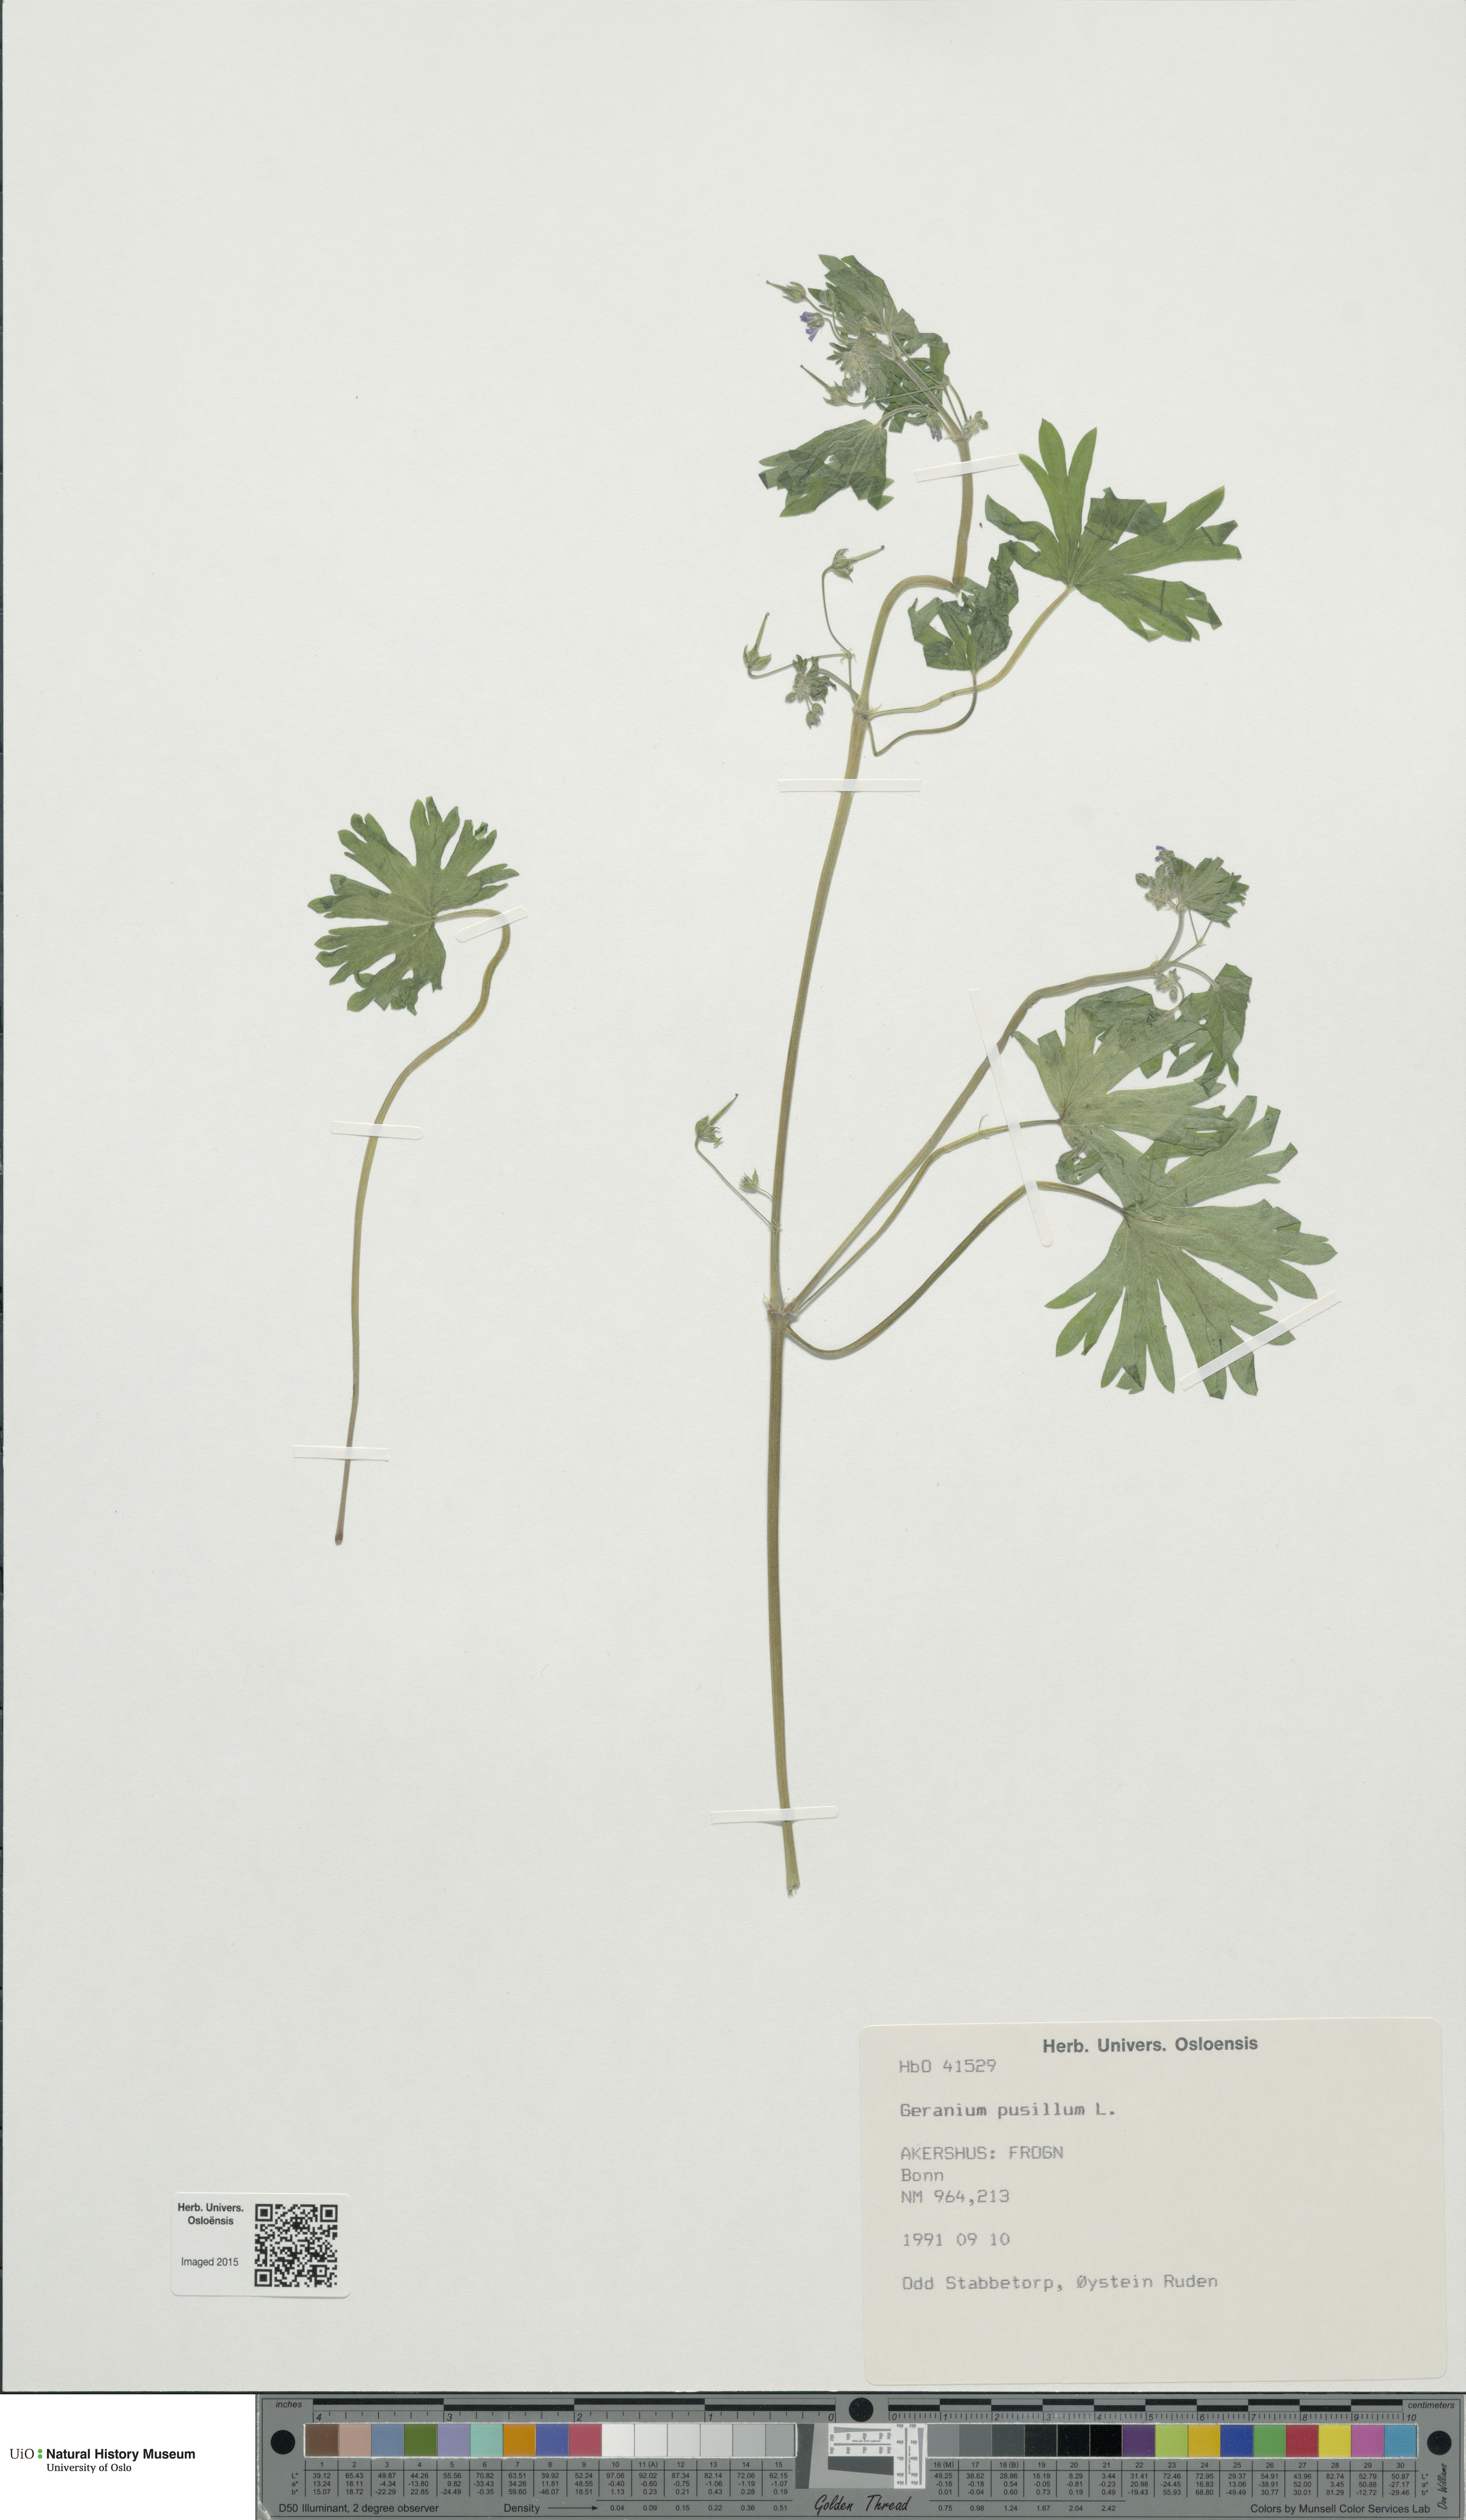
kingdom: Plantae
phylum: Tracheophyta
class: Magnoliopsida
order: Geraniales
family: Geraniaceae
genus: Geranium
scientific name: Geranium pusillum
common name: Small geranium
